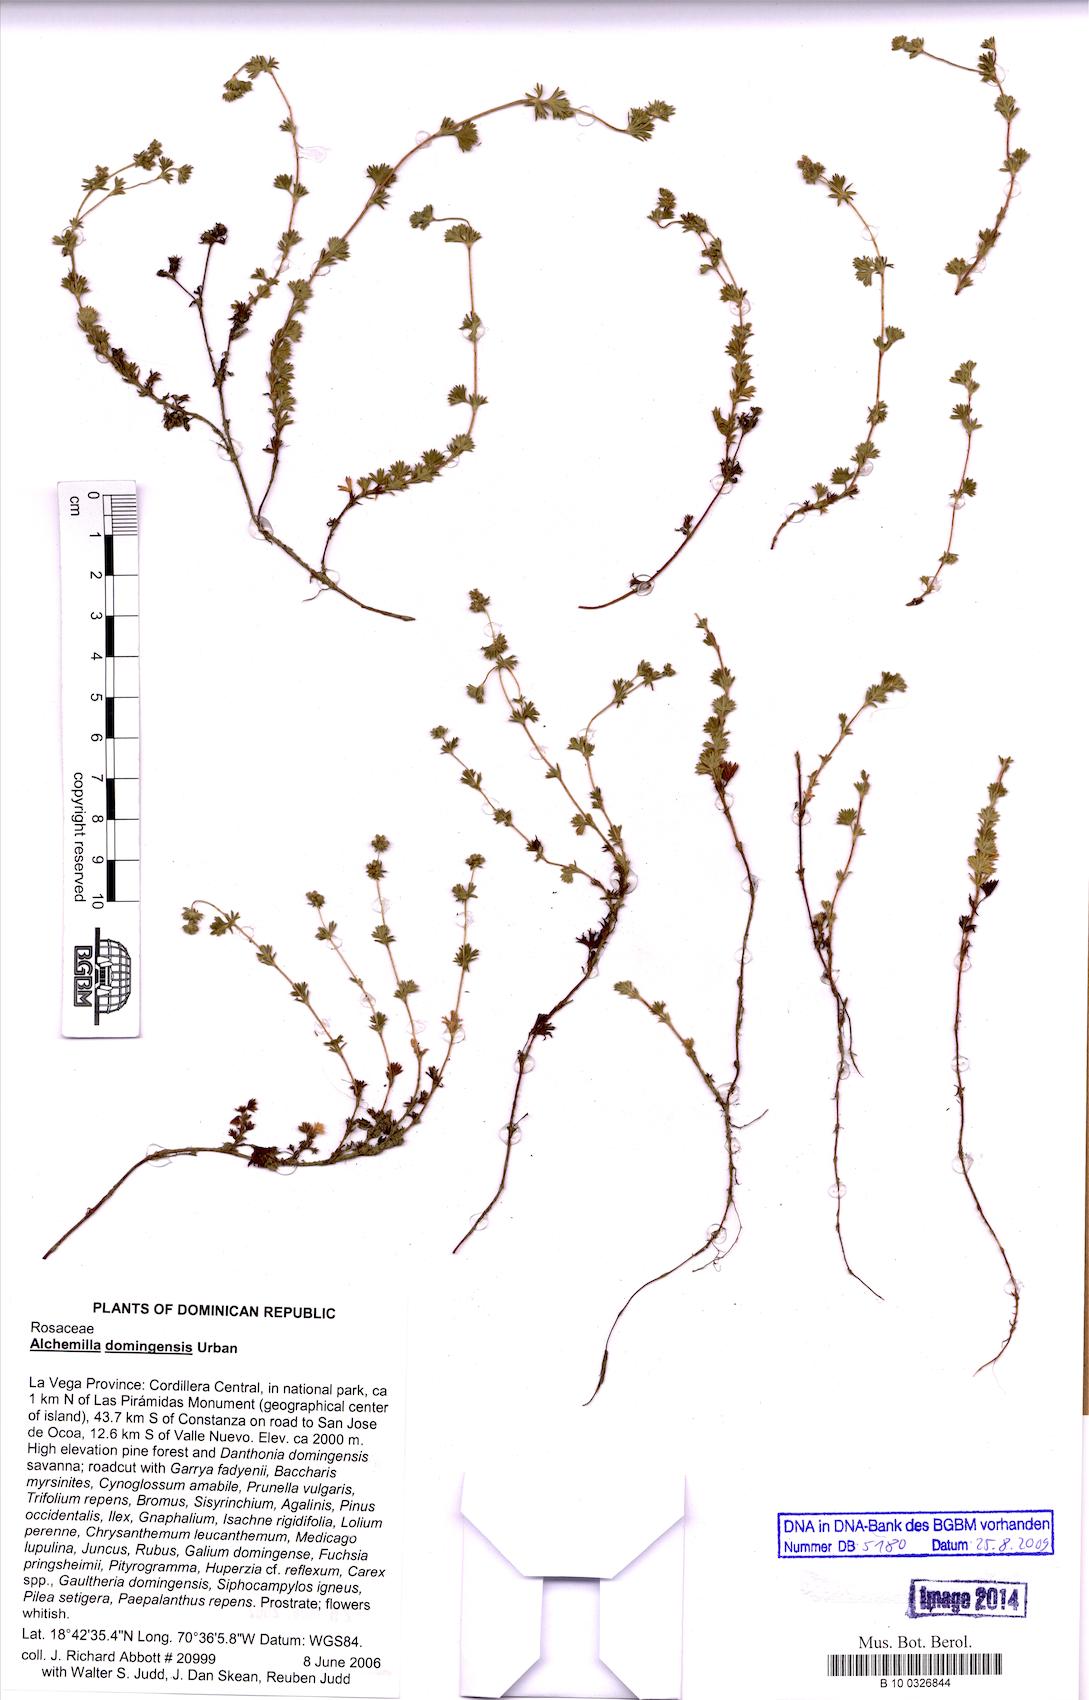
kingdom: Plantae
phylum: Tracheophyta
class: Magnoliopsida
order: Rosales
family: Rosaceae
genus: Lachemilla
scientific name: Lachemilla domingensis
